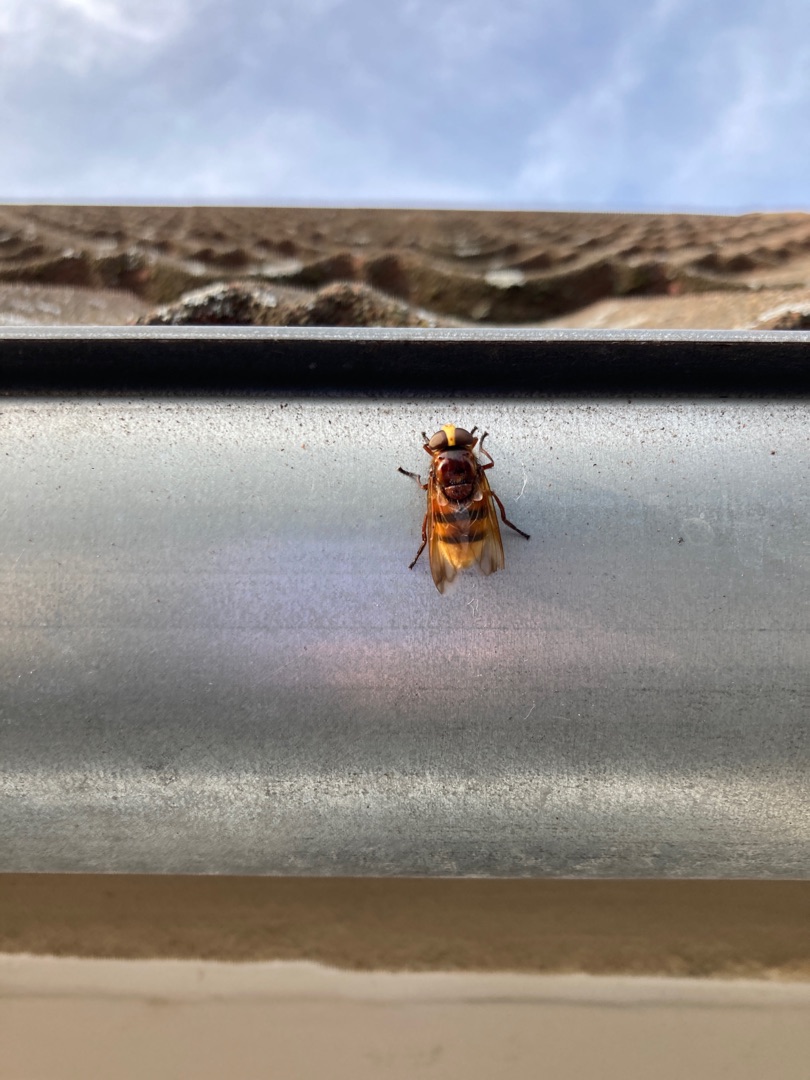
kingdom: Animalia
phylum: Arthropoda
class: Insecta
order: Diptera
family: Syrphidae
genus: Volucella
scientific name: Volucella zonaria
